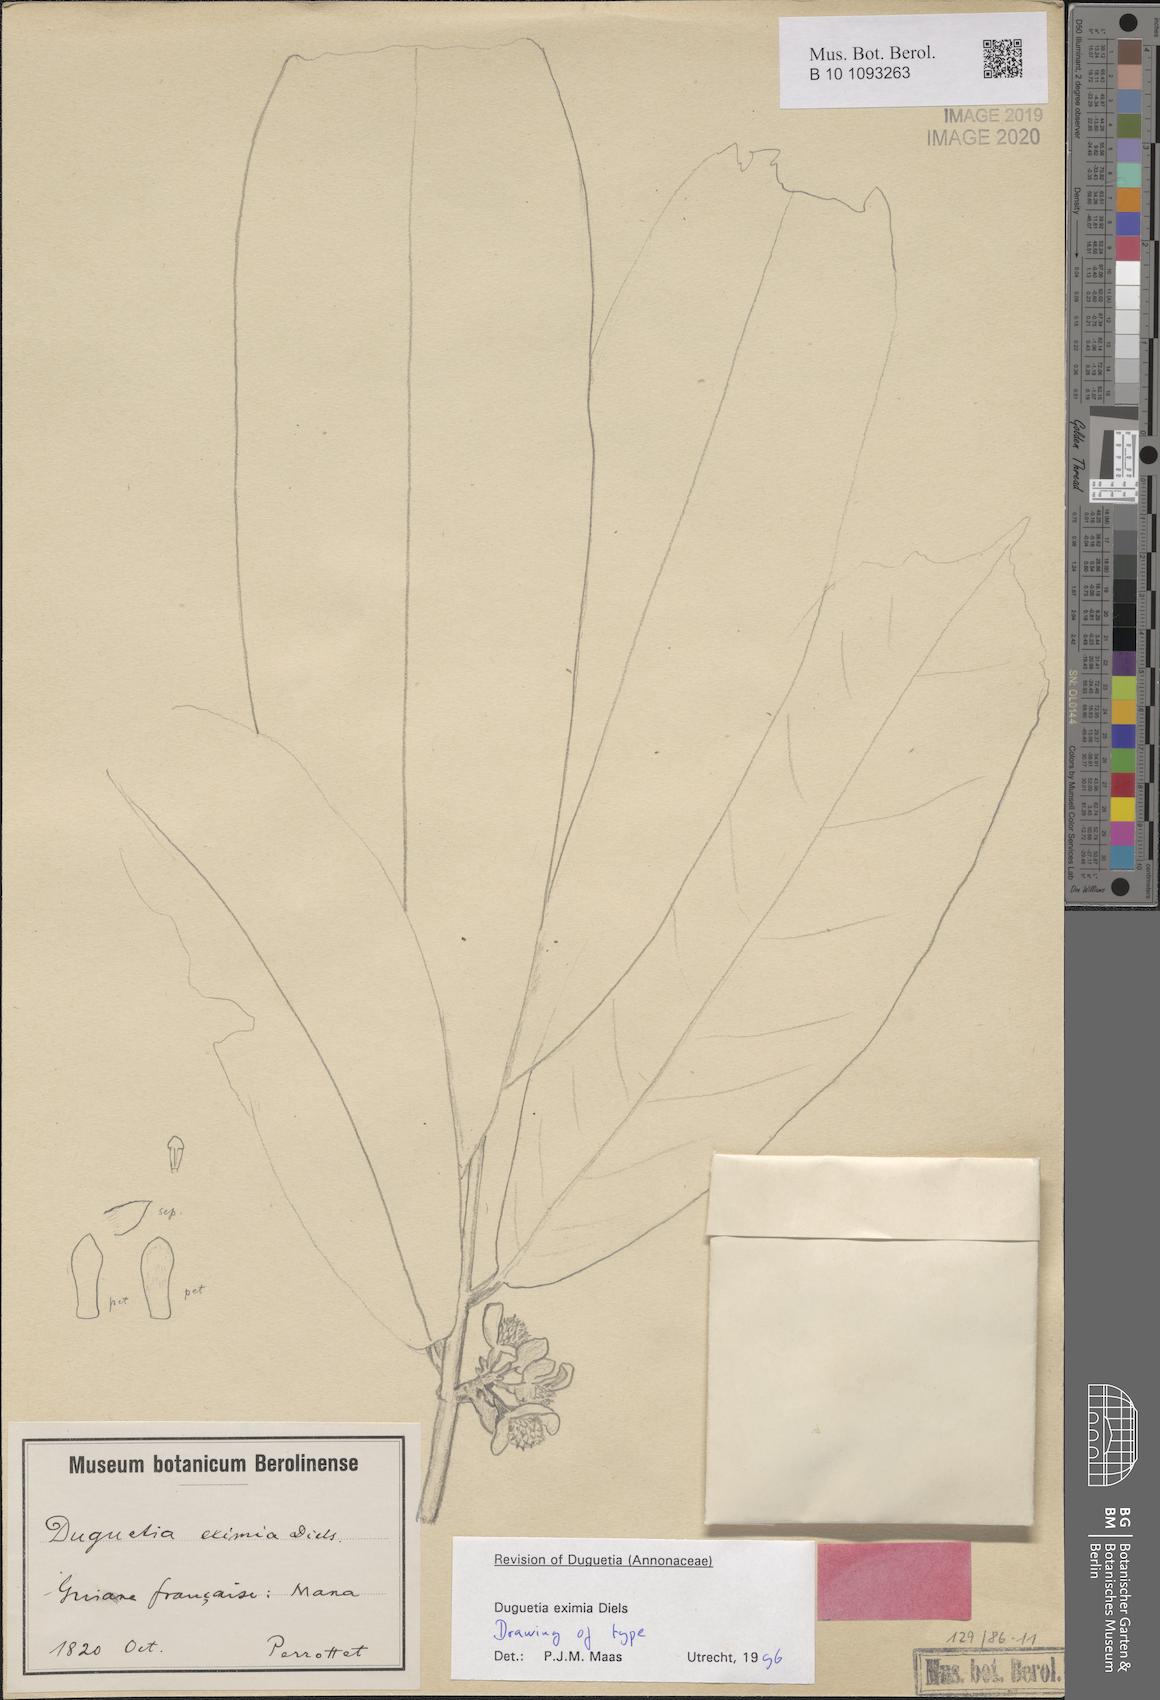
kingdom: Plantae
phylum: Tracheophyta
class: Magnoliopsida
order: Magnoliales
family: Annonaceae
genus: Duguetia
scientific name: Duguetia eximia
